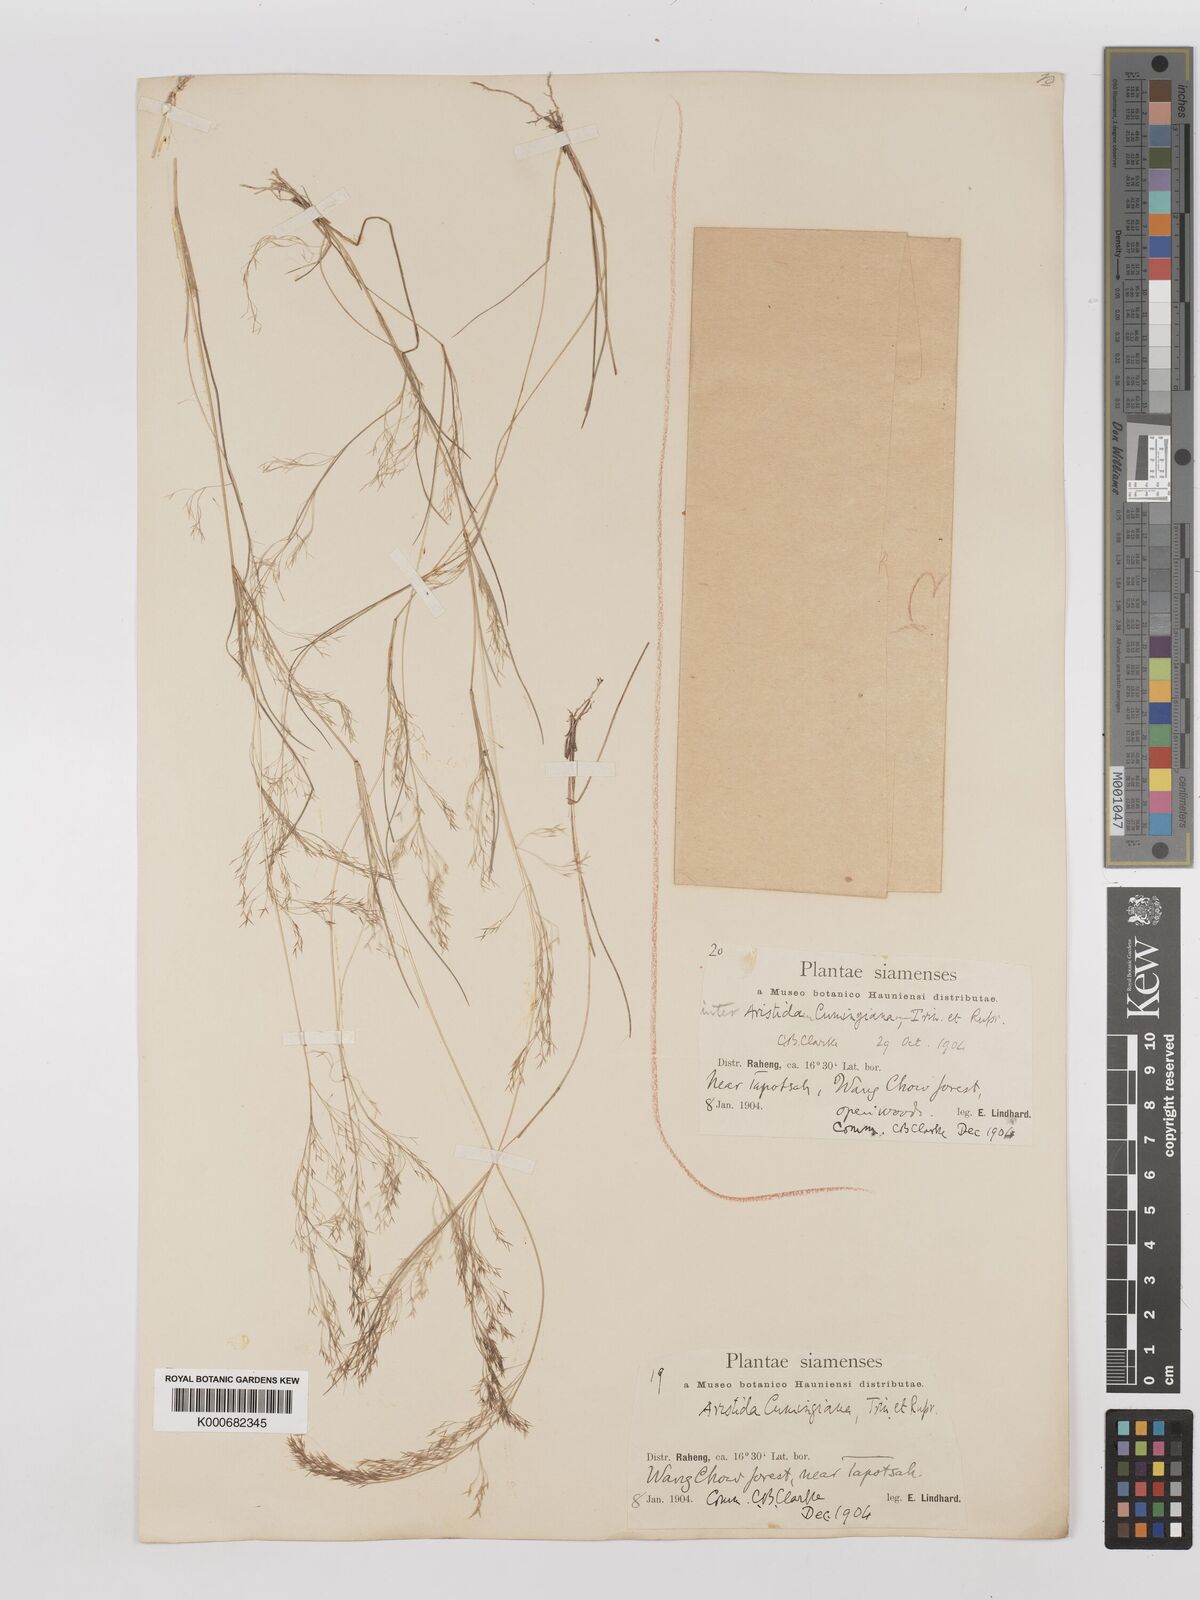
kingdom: Plantae
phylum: Tracheophyta
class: Liliopsida
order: Poales
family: Poaceae
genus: Aristida
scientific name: Aristida cumingiana
